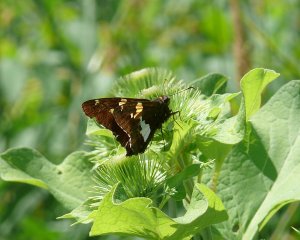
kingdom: Animalia
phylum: Arthropoda
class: Insecta
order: Lepidoptera
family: Hesperiidae
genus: Epargyreus
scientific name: Epargyreus clarus
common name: Silver-spotted Skipper
